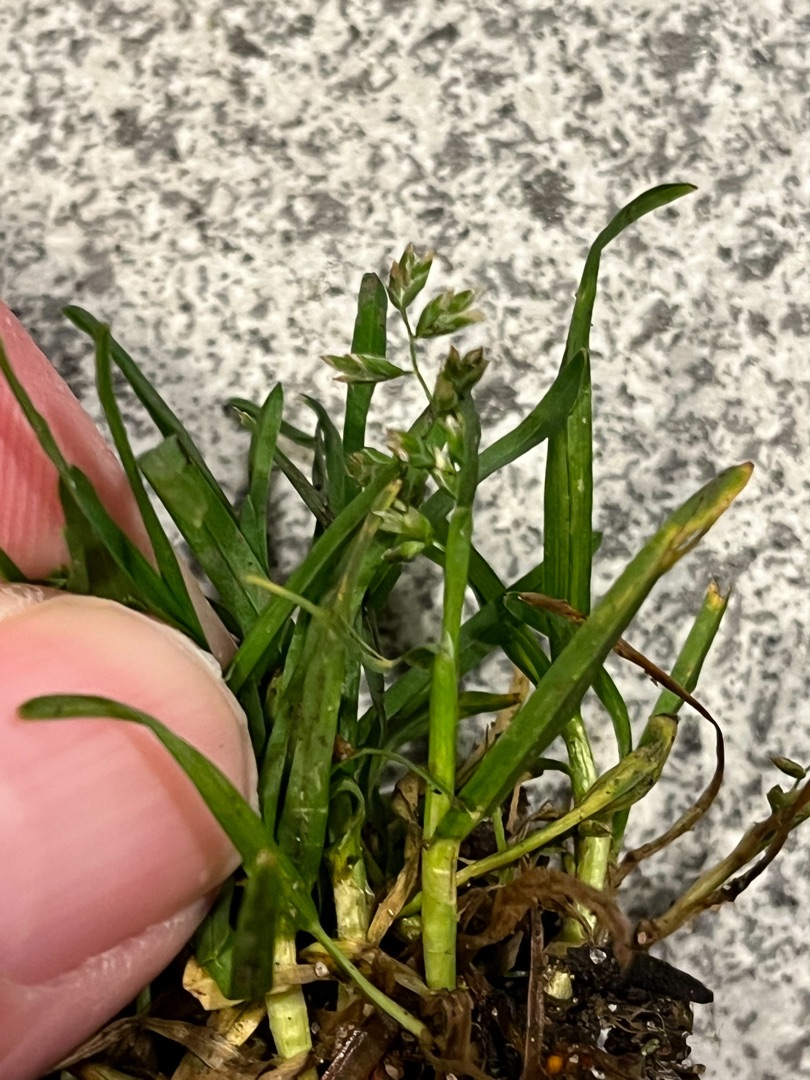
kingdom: Plantae
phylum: Tracheophyta
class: Liliopsida
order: Poales
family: Poaceae
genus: Poa
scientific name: Poa annua
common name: Enårig rapgræs
